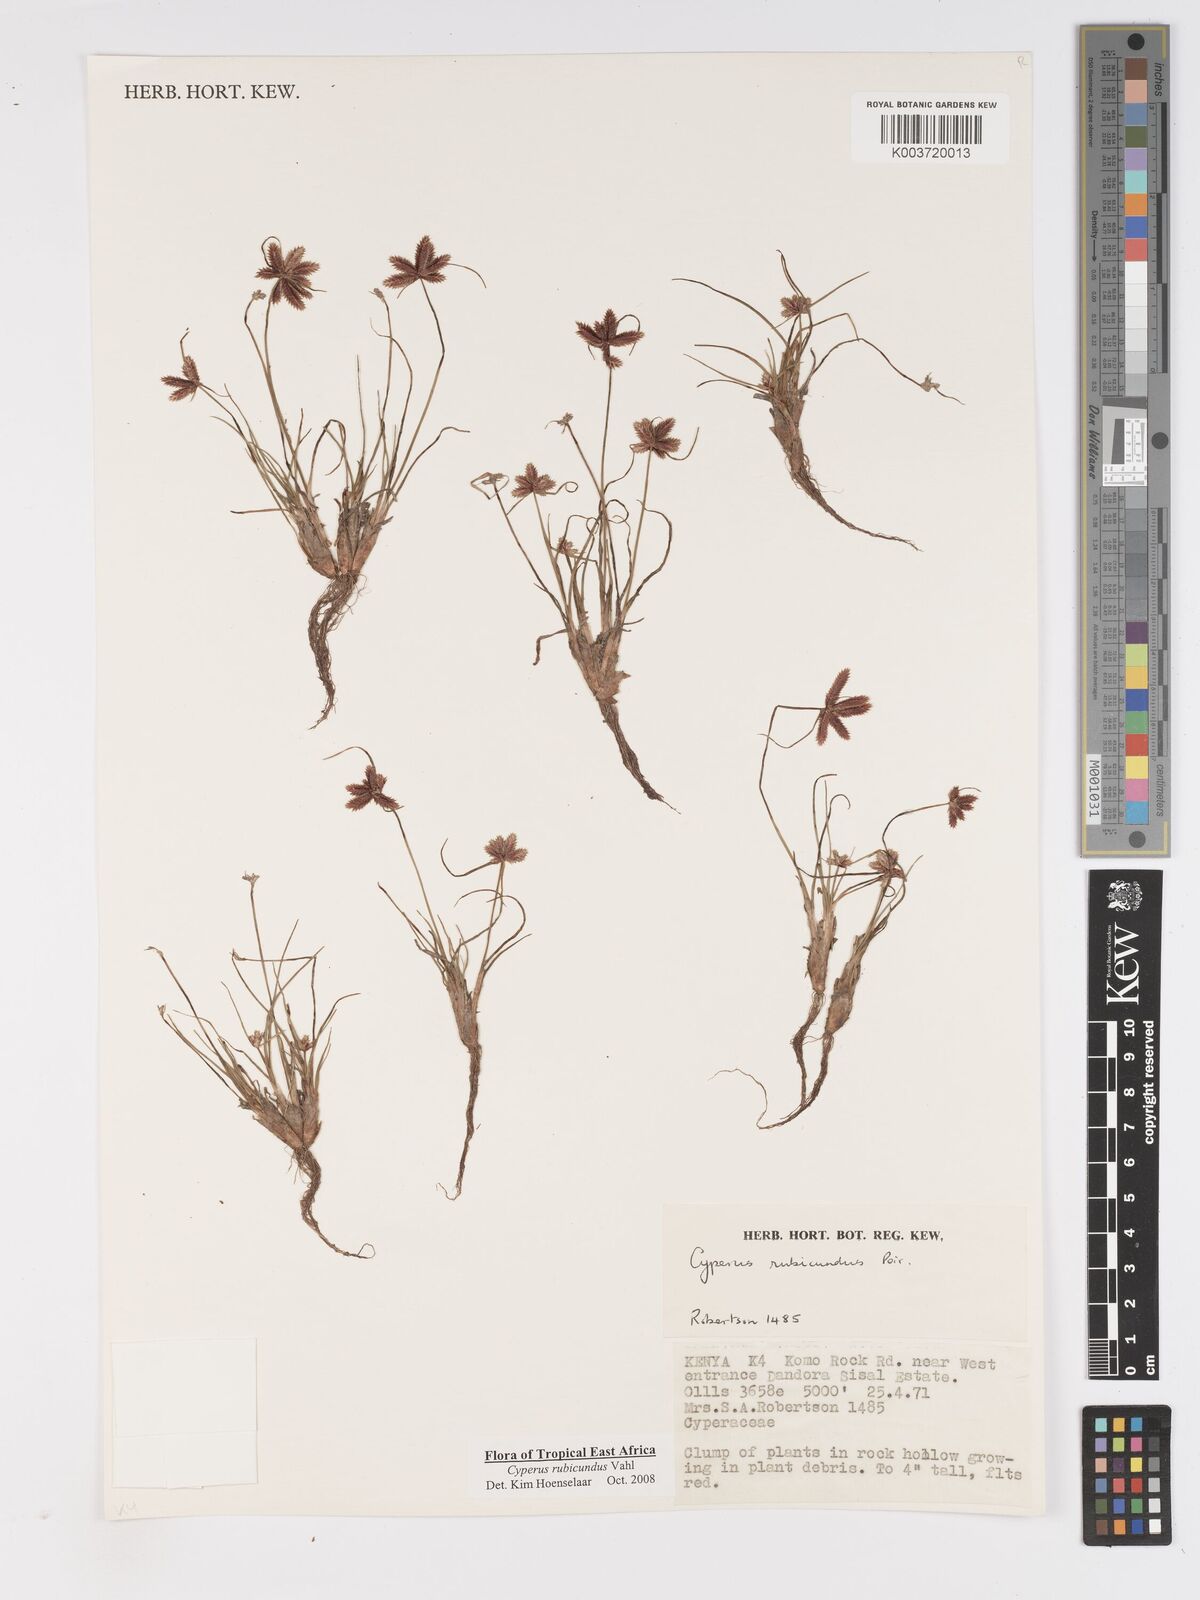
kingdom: Plantae
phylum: Tracheophyta
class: Liliopsida
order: Poales
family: Cyperaceae
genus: Cyperus
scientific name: Cyperus rubicundus
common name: Coco-grass
